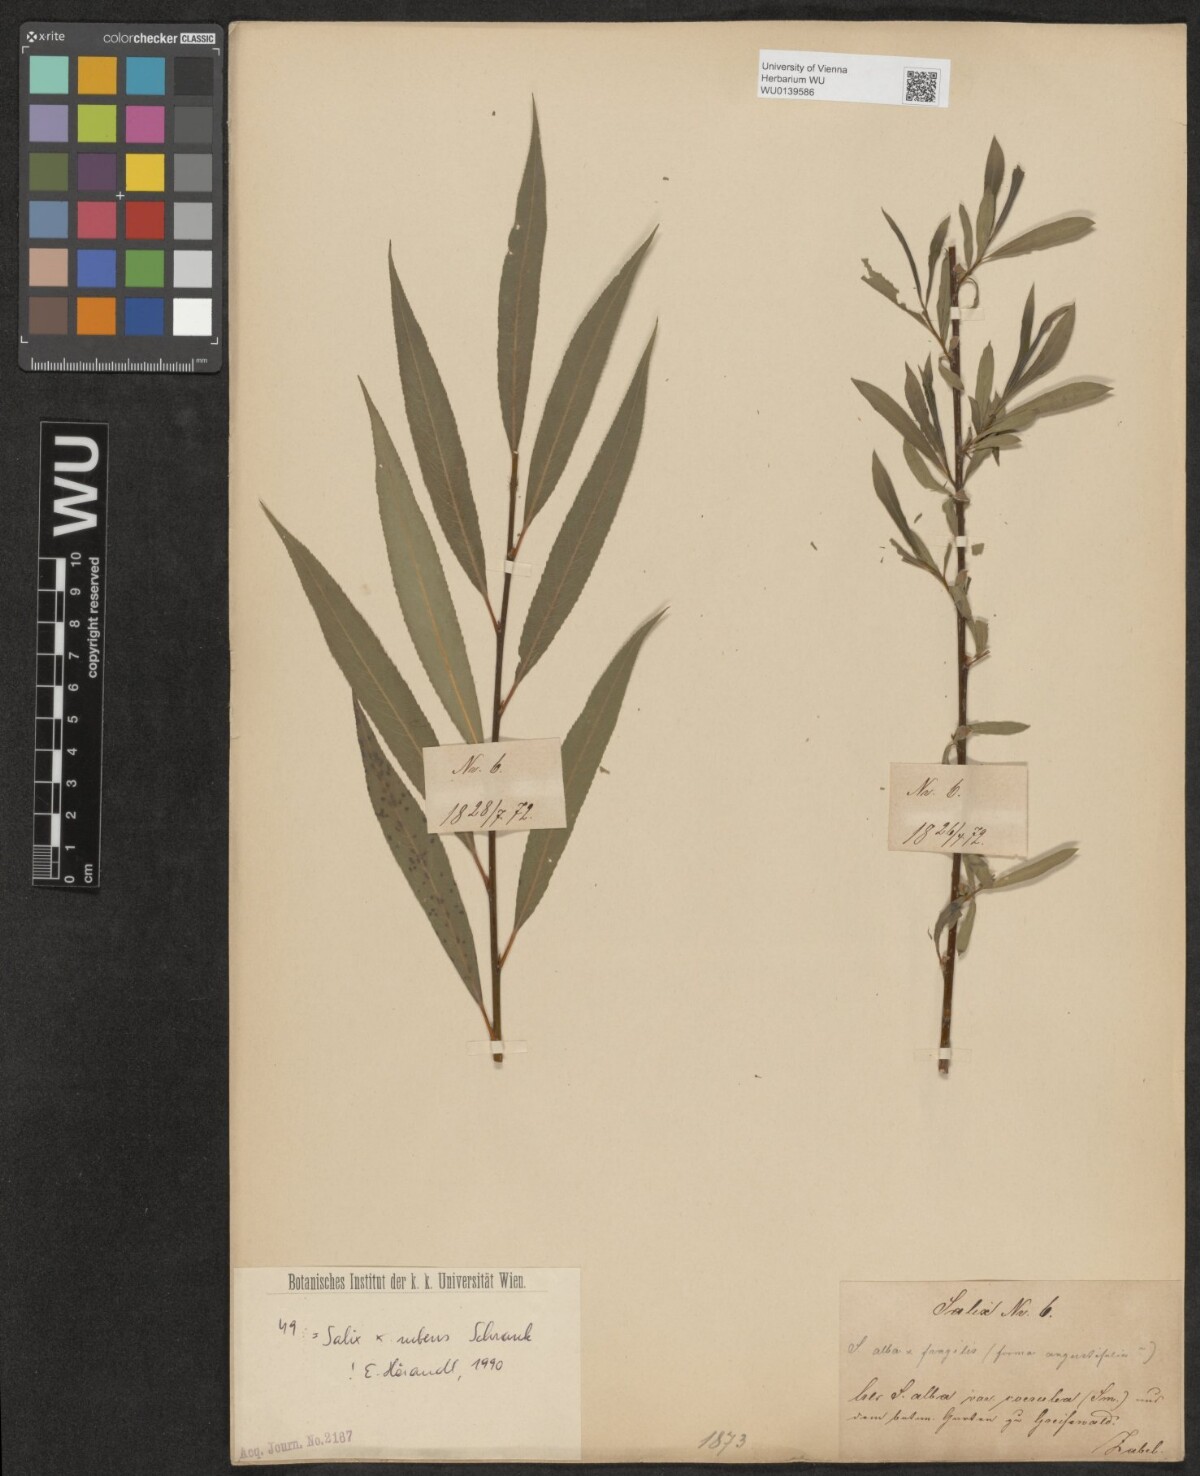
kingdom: Plantae
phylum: Tracheophyta
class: Magnoliopsida
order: Malpighiales
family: Salicaceae
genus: Salix
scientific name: Salix rubens
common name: Hybrid crack willow
